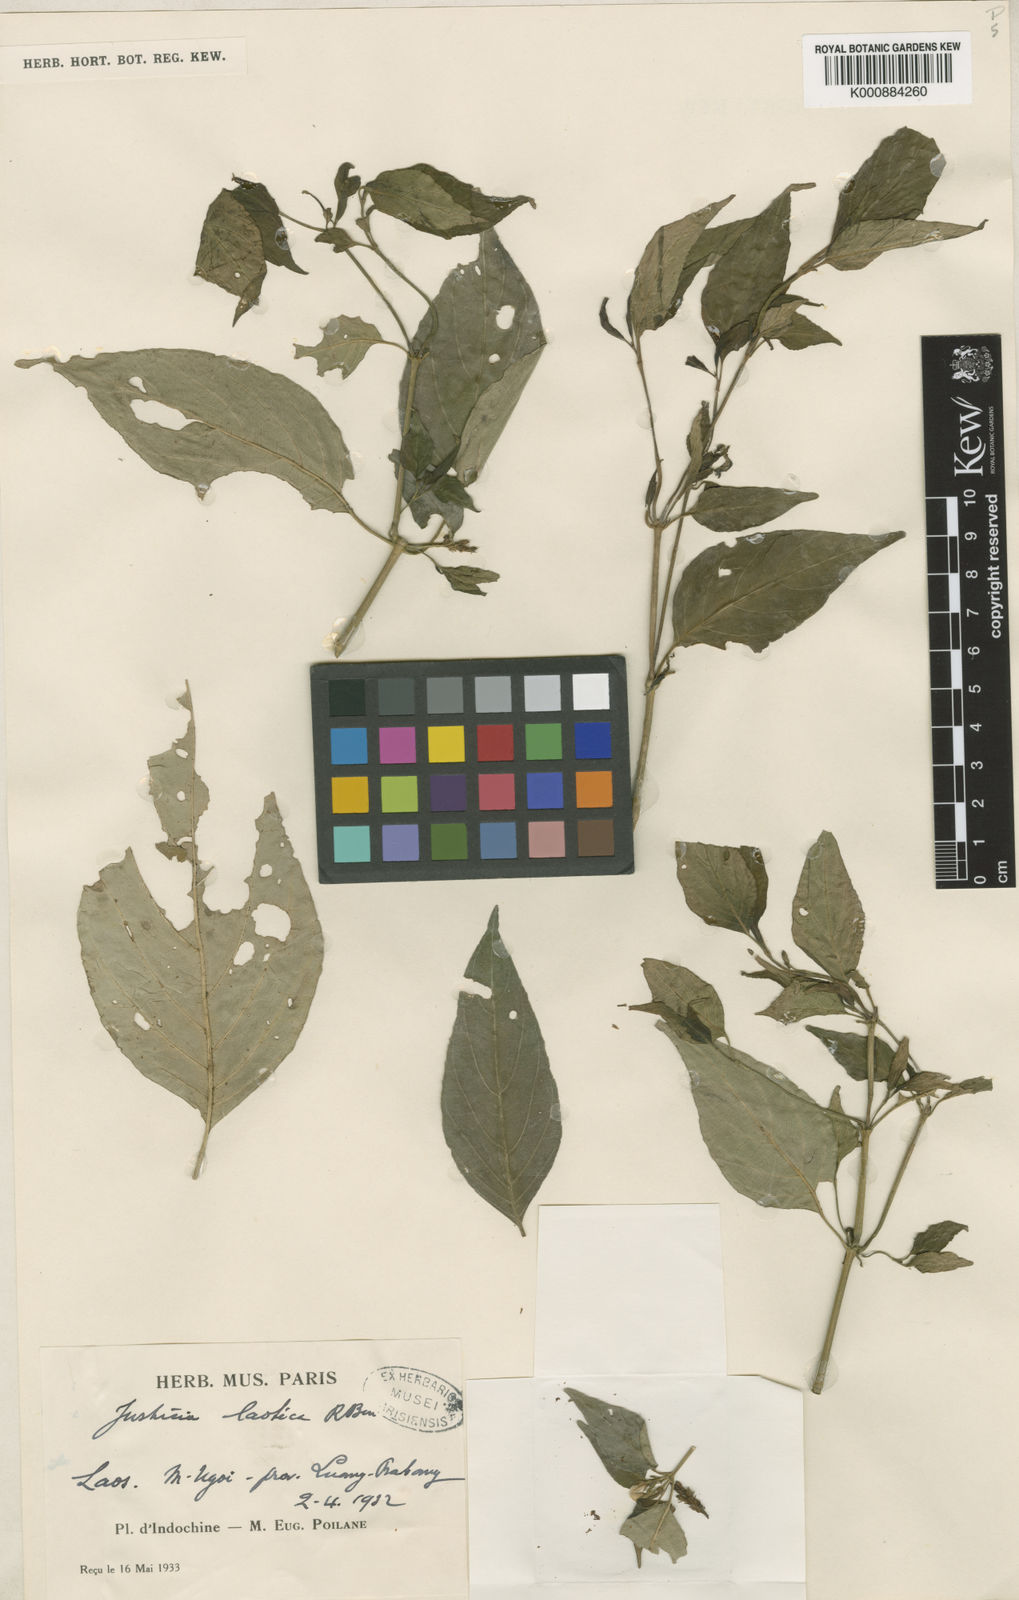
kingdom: Plantae
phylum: Tracheophyta
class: Magnoliopsida
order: Lamiales
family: Acanthaceae
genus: Justicia
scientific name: Justicia laotica
